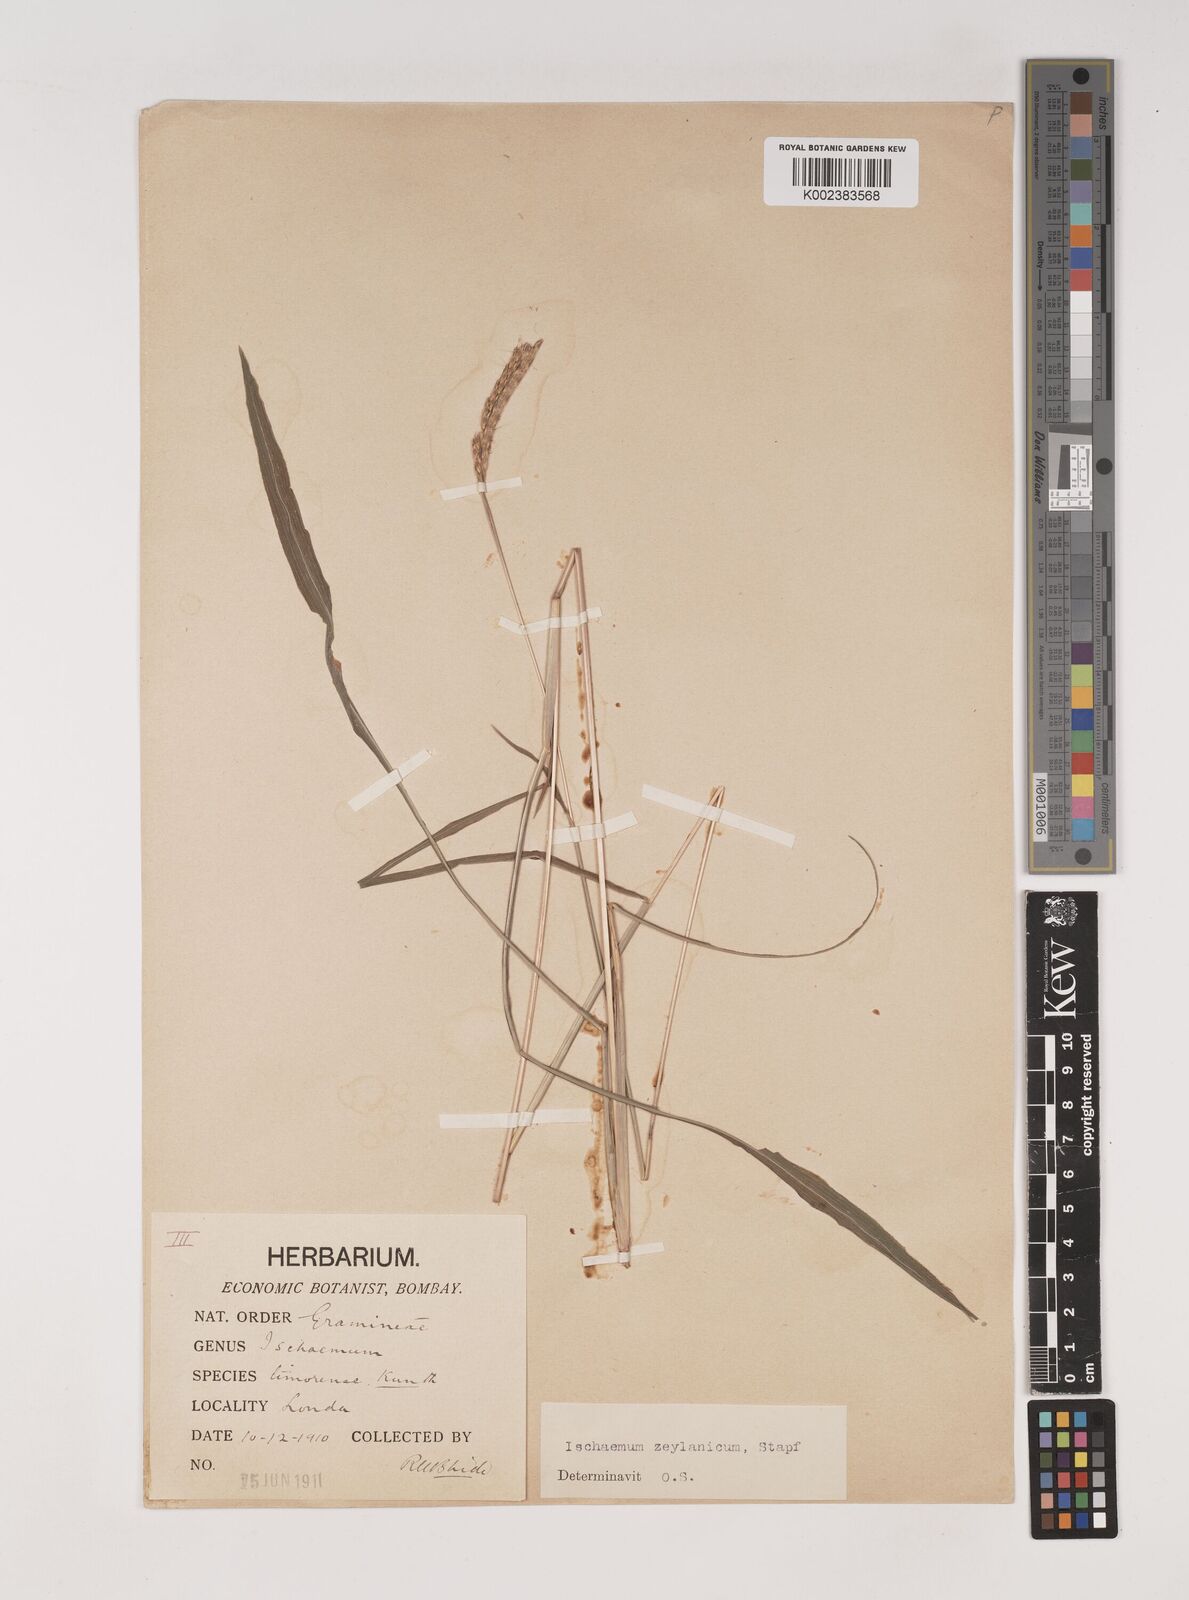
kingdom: Plantae
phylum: Tracheophyta
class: Liliopsida
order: Poales
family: Poaceae
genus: Ischaemum
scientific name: Ischaemum zeylanicola
